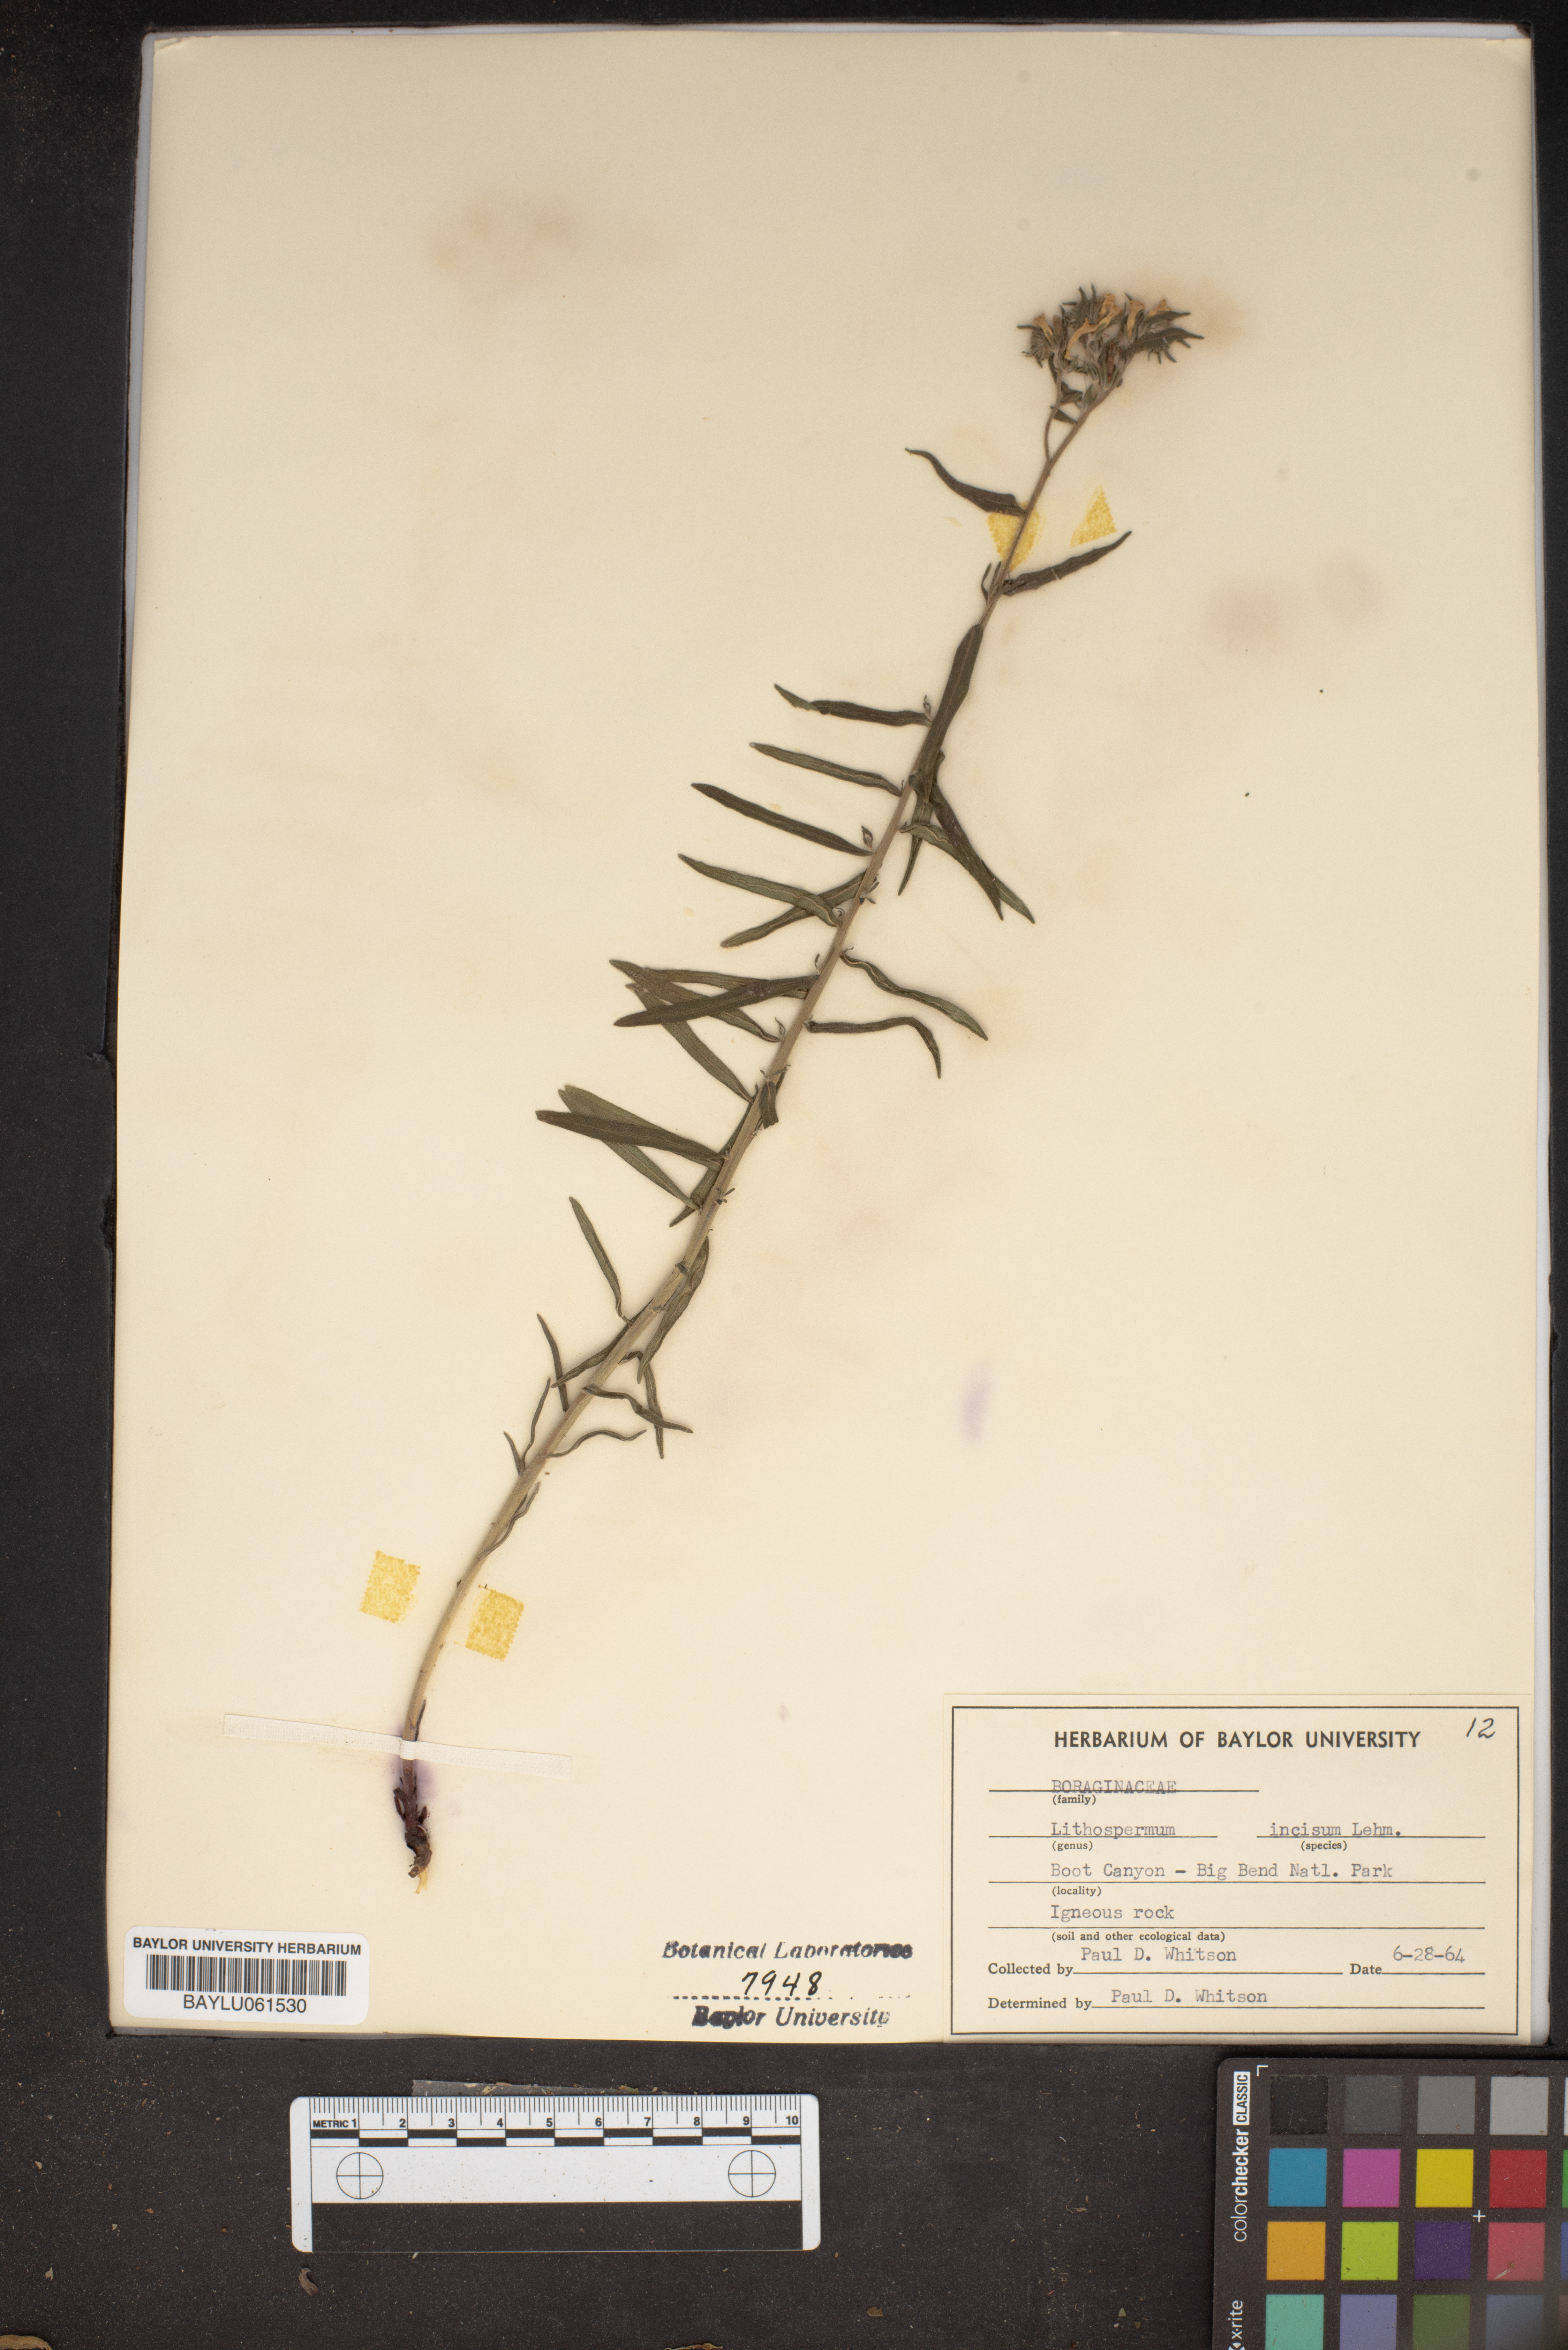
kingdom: Plantae
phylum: Tracheophyta
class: Magnoliopsida
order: Boraginales
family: Boraginaceae
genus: Lithospermum
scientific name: Lithospermum incisum
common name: Fringed gromwell
